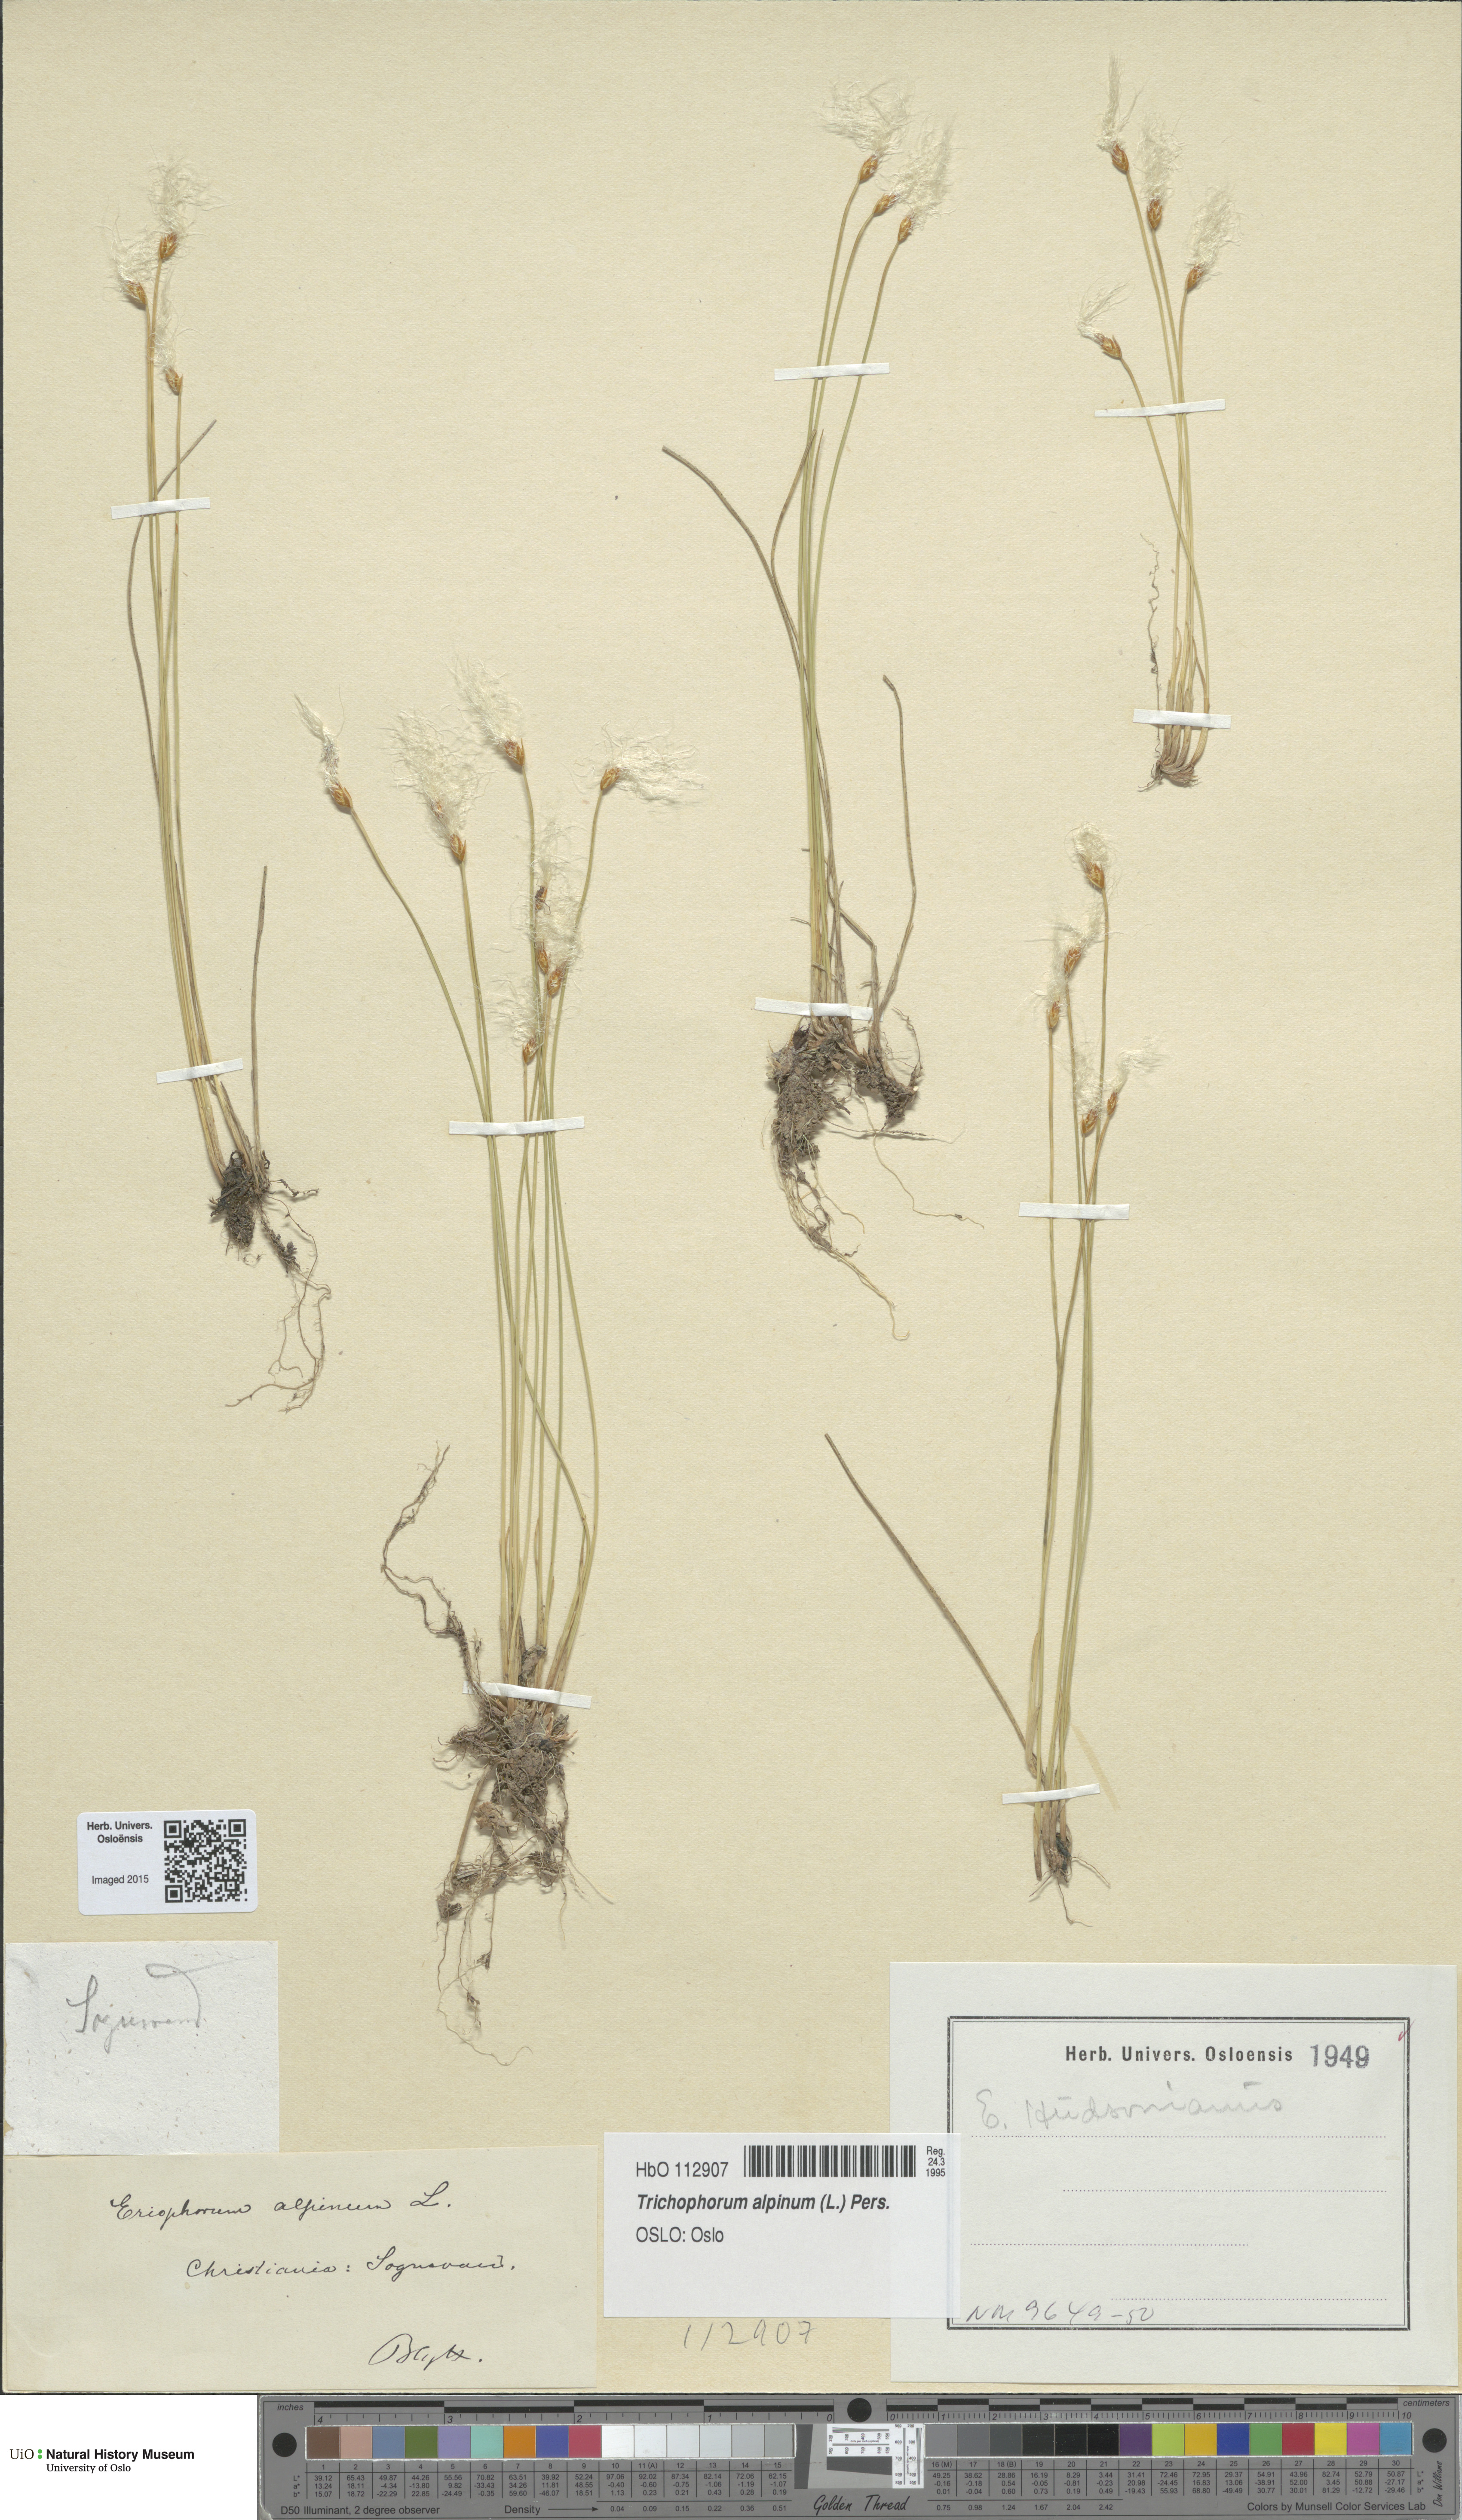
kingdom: Plantae
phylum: Tracheophyta
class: Liliopsida
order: Poales
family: Cyperaceae
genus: Trichophorum
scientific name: Trichophorum alpinum
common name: Alpine bulrush
